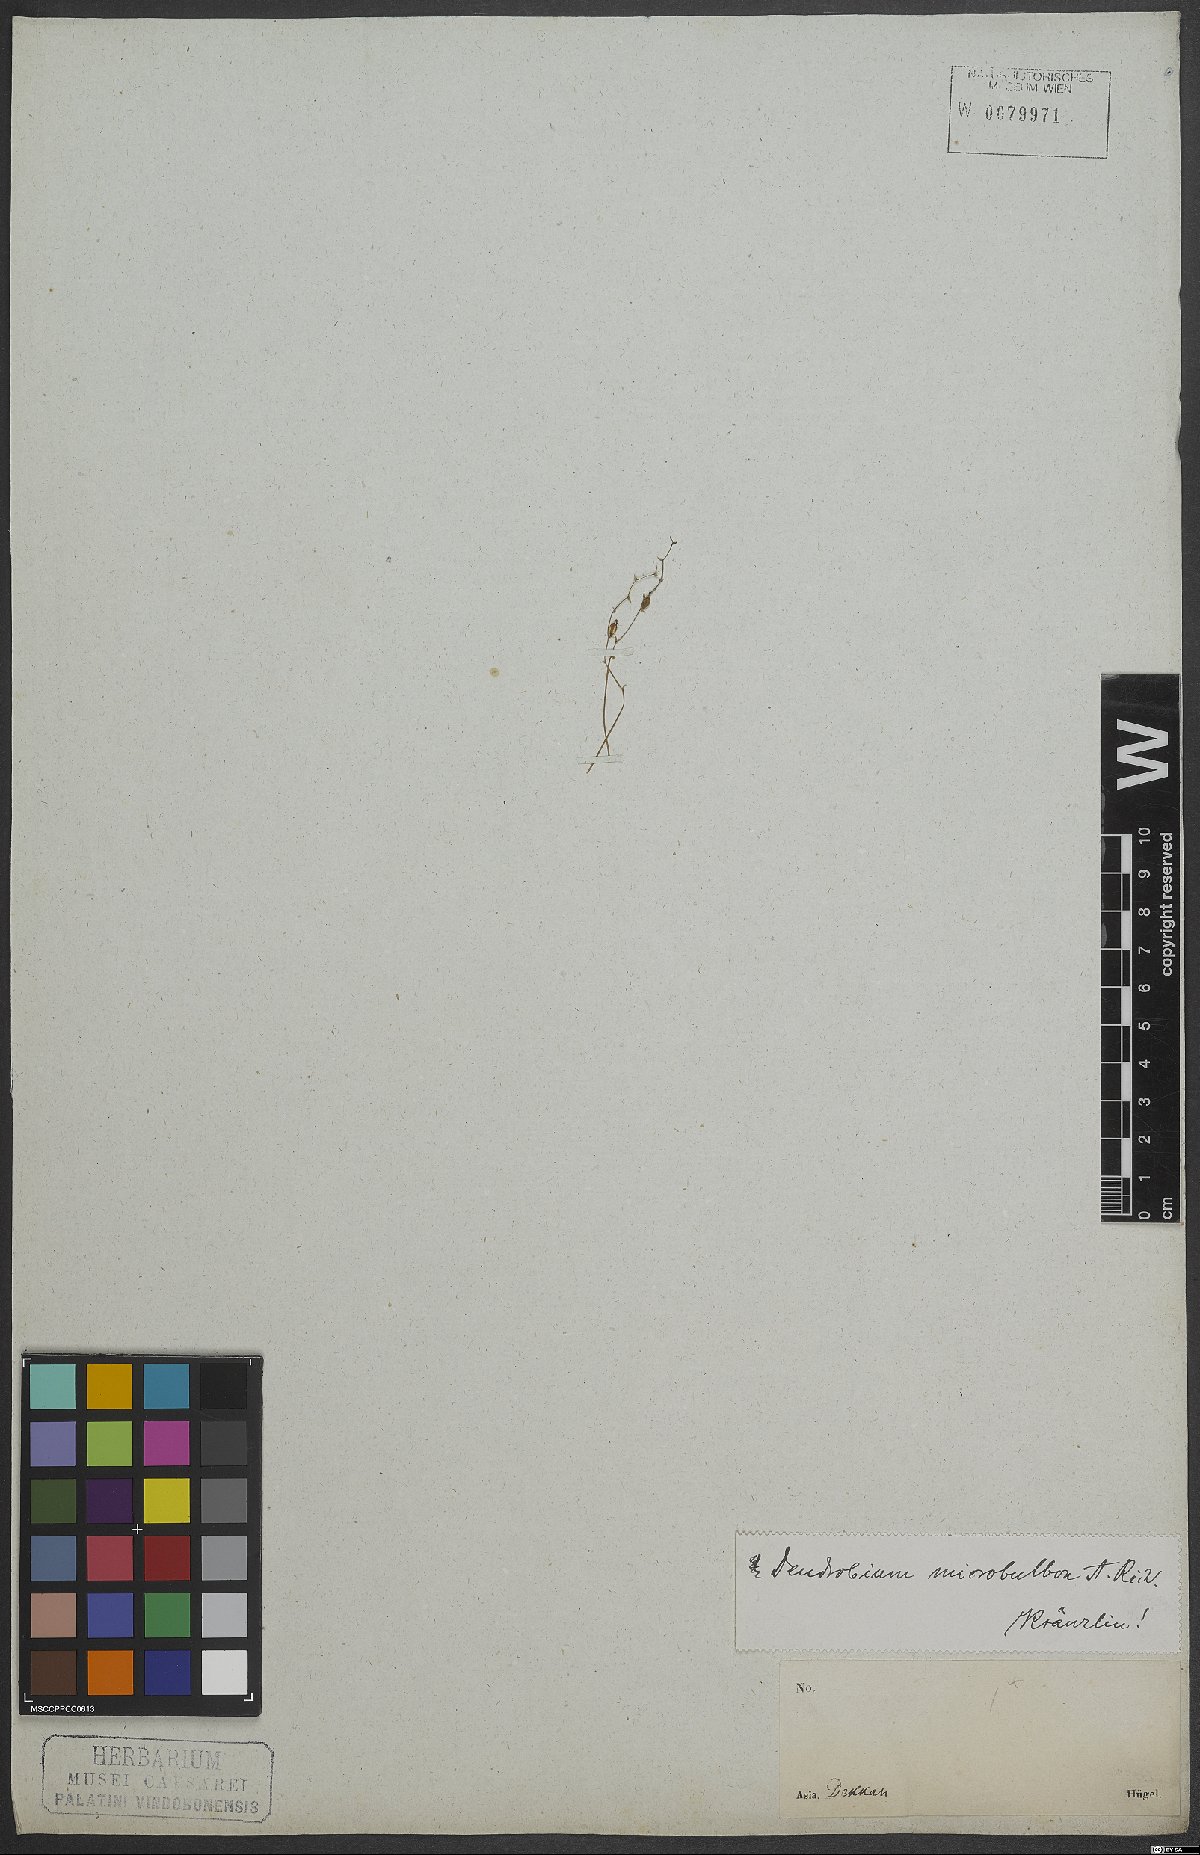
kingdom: Plantae
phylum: Tracheophyta
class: Liliopsida
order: Asparagales
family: Orchidaceae
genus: Dendrobium
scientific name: Dendrobium microbulbon
